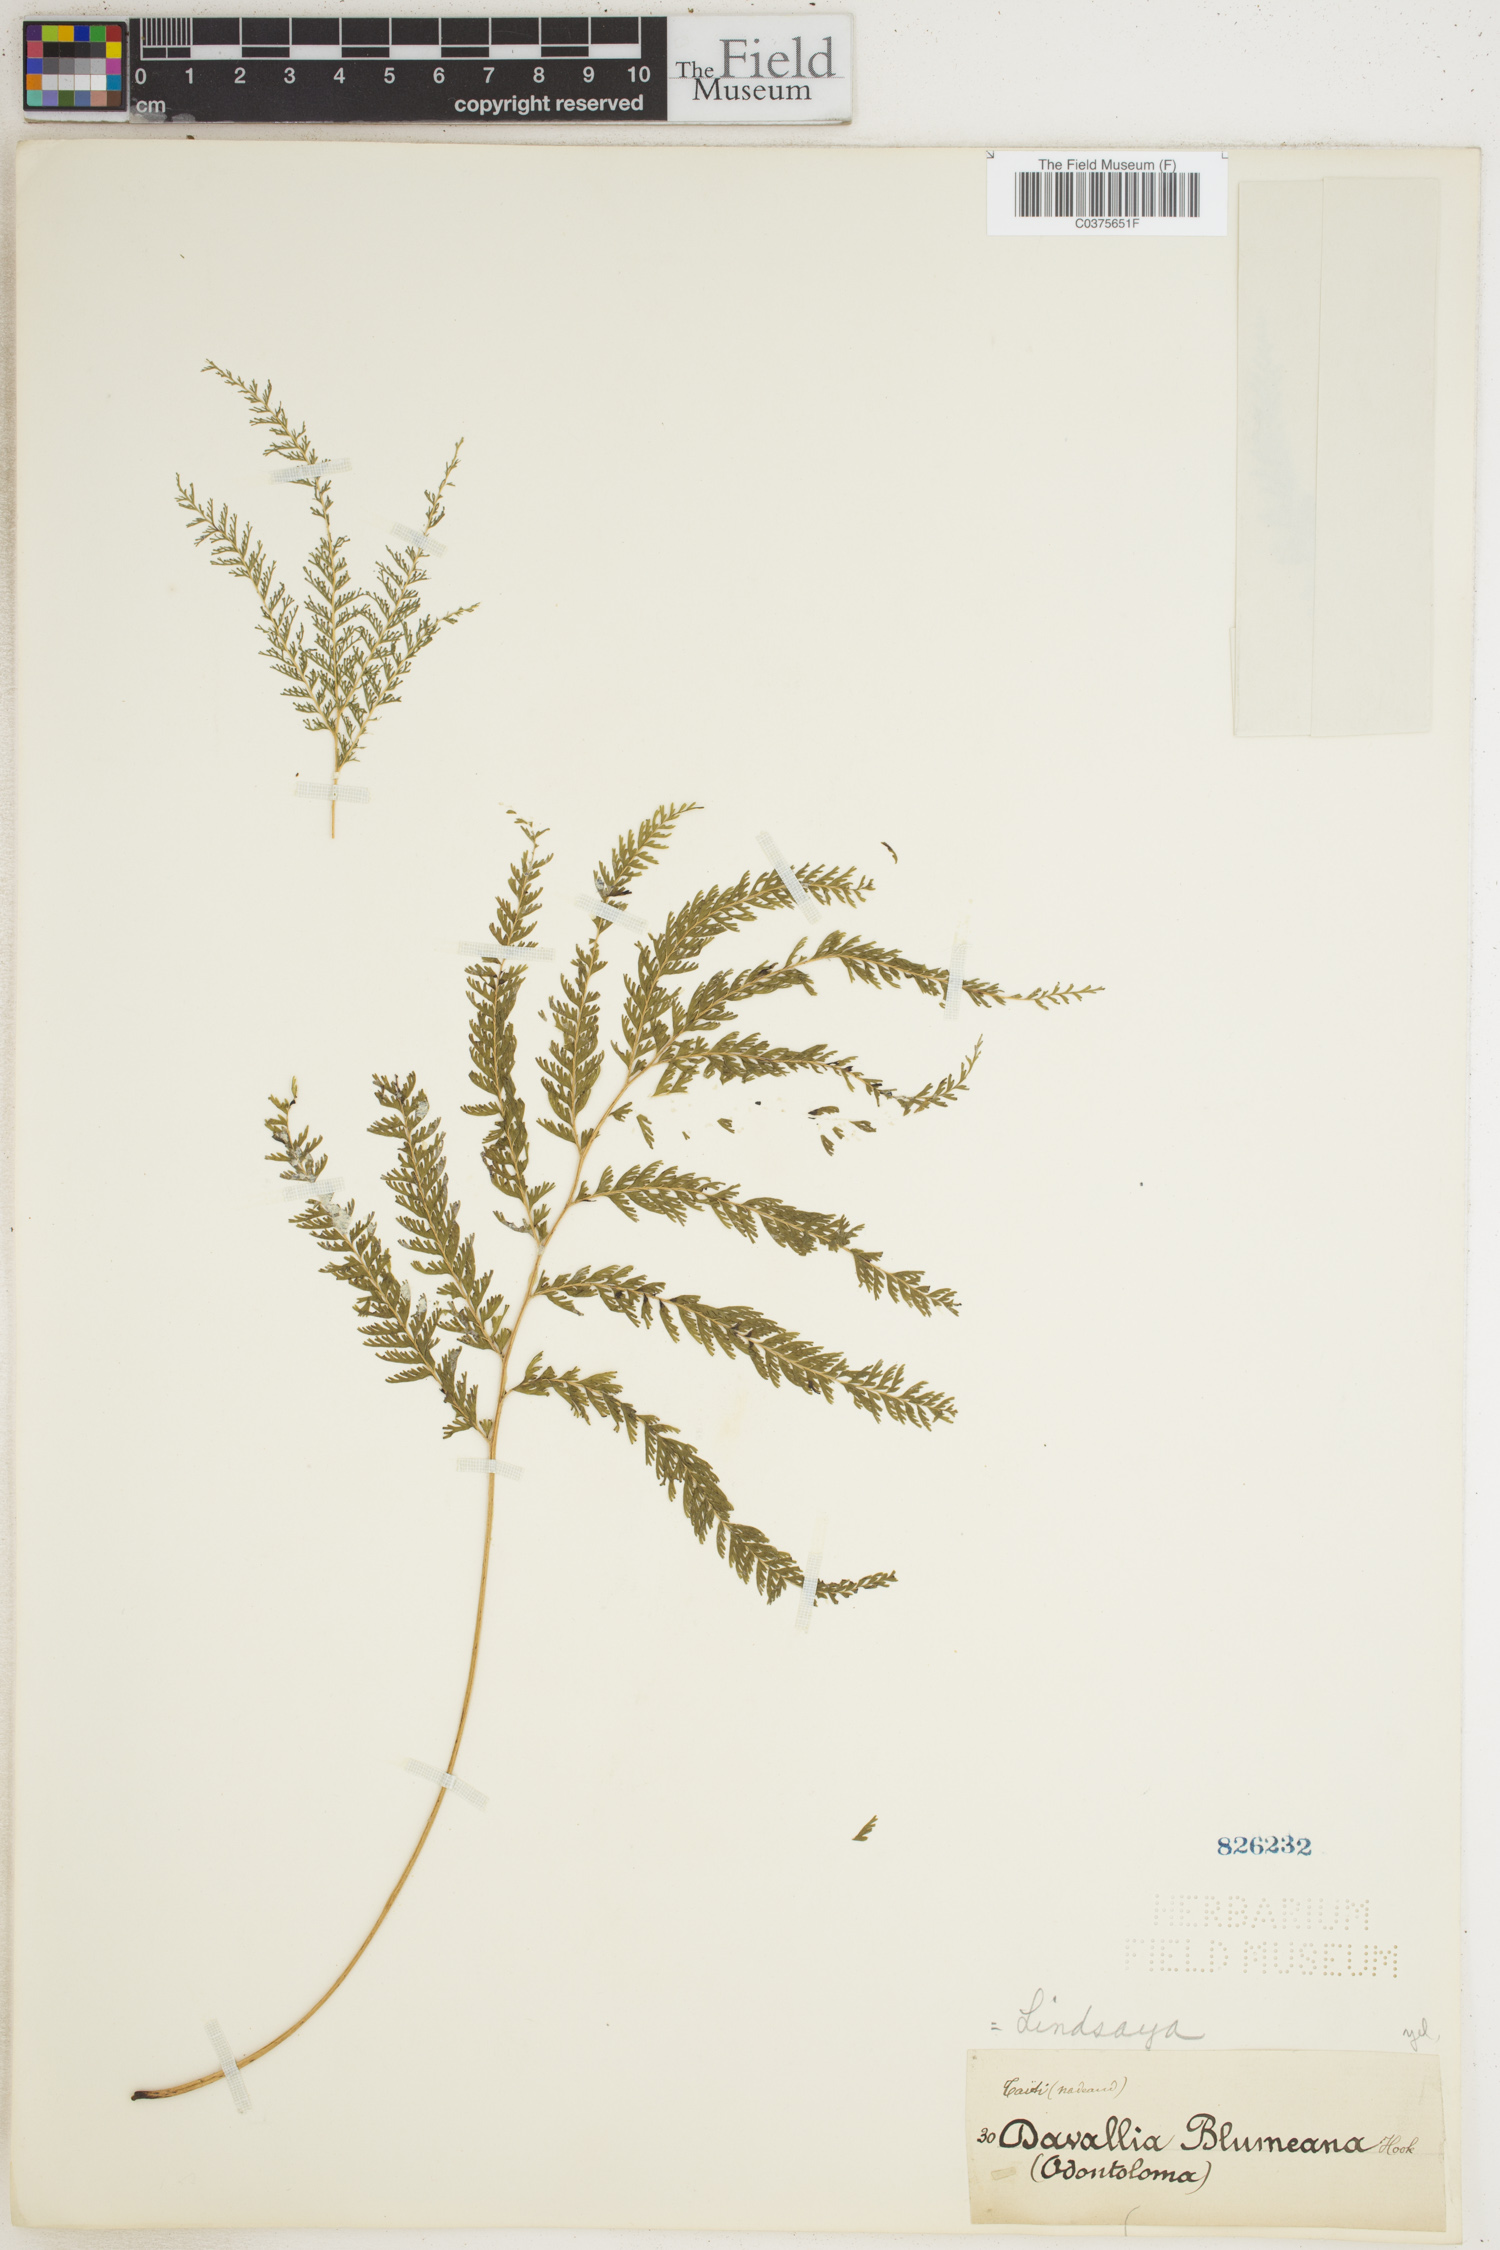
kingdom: Plantae
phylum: Tracheophyta
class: Polypodiopsida
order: Polypodiales
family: Lindsaeaceae
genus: Lindsaea
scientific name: Lindsaea tenuifolia
